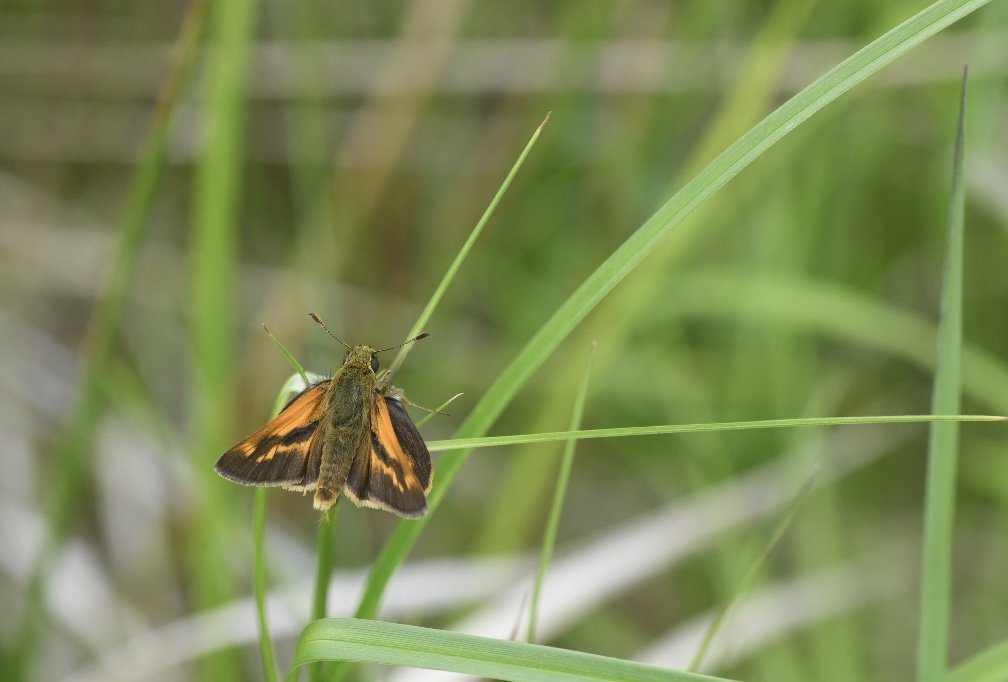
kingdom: Animalia
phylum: Arthropoda
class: Insecta
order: Lepidoptera
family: Hesperiidae
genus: Polites
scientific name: Polites
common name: Long Dash Skipper
